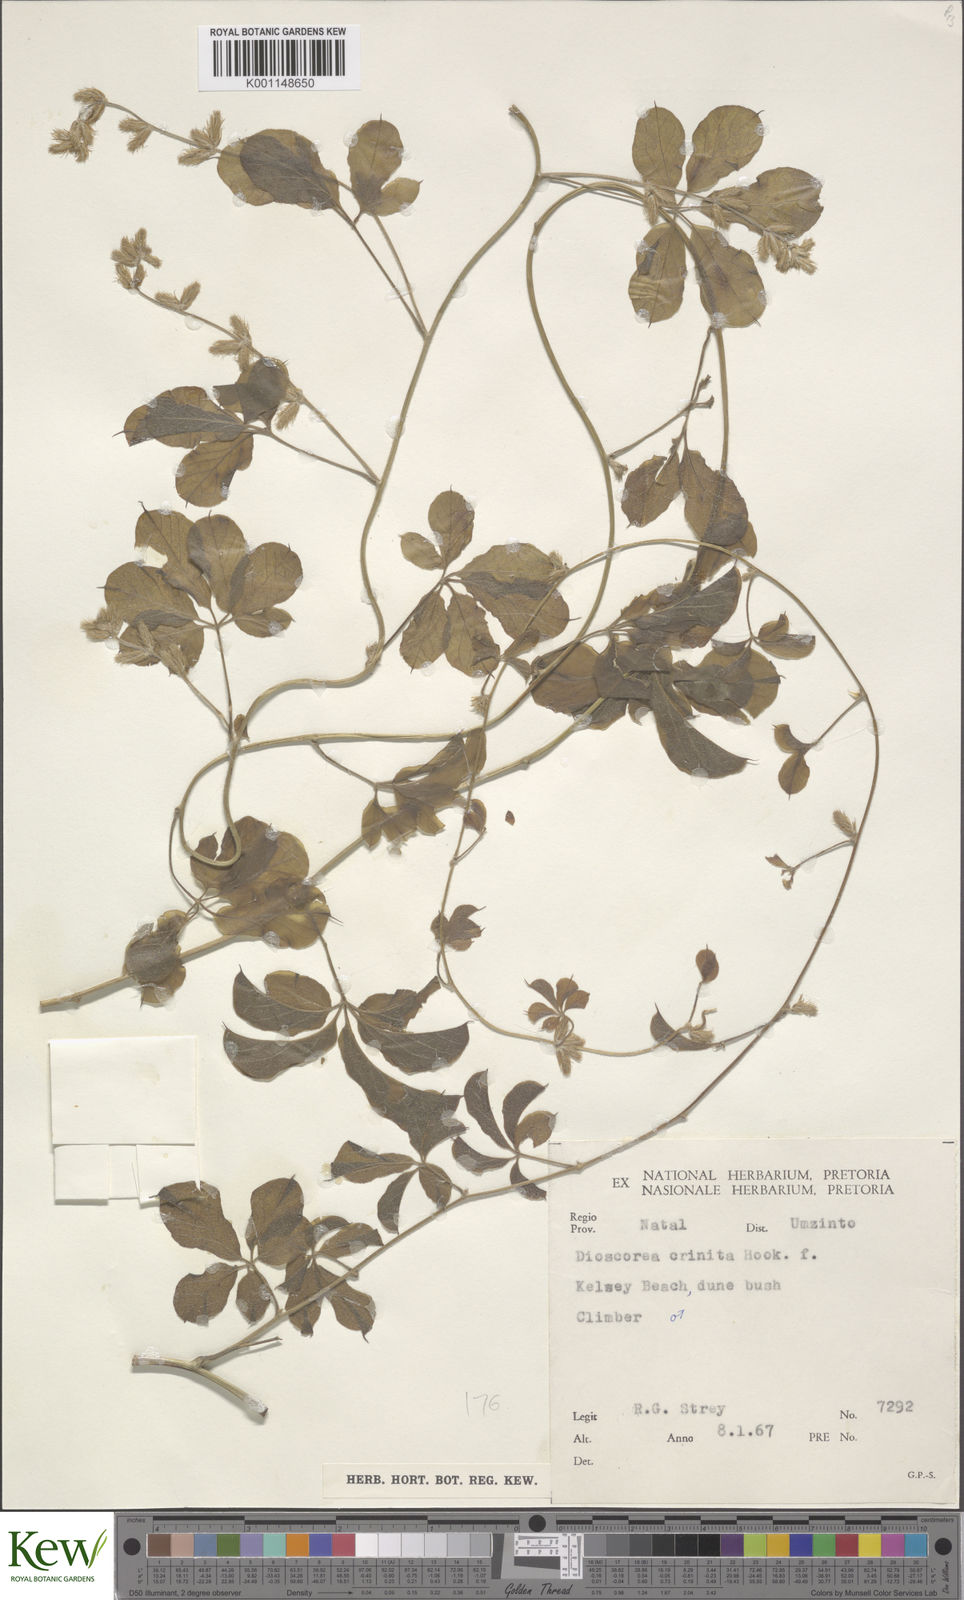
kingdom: Plantae
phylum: Tracheophyta
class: Liliopsida
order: Dioscoreales
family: Dioscoreaceae
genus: Dioscorea
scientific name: Dioscorea quartiniana
